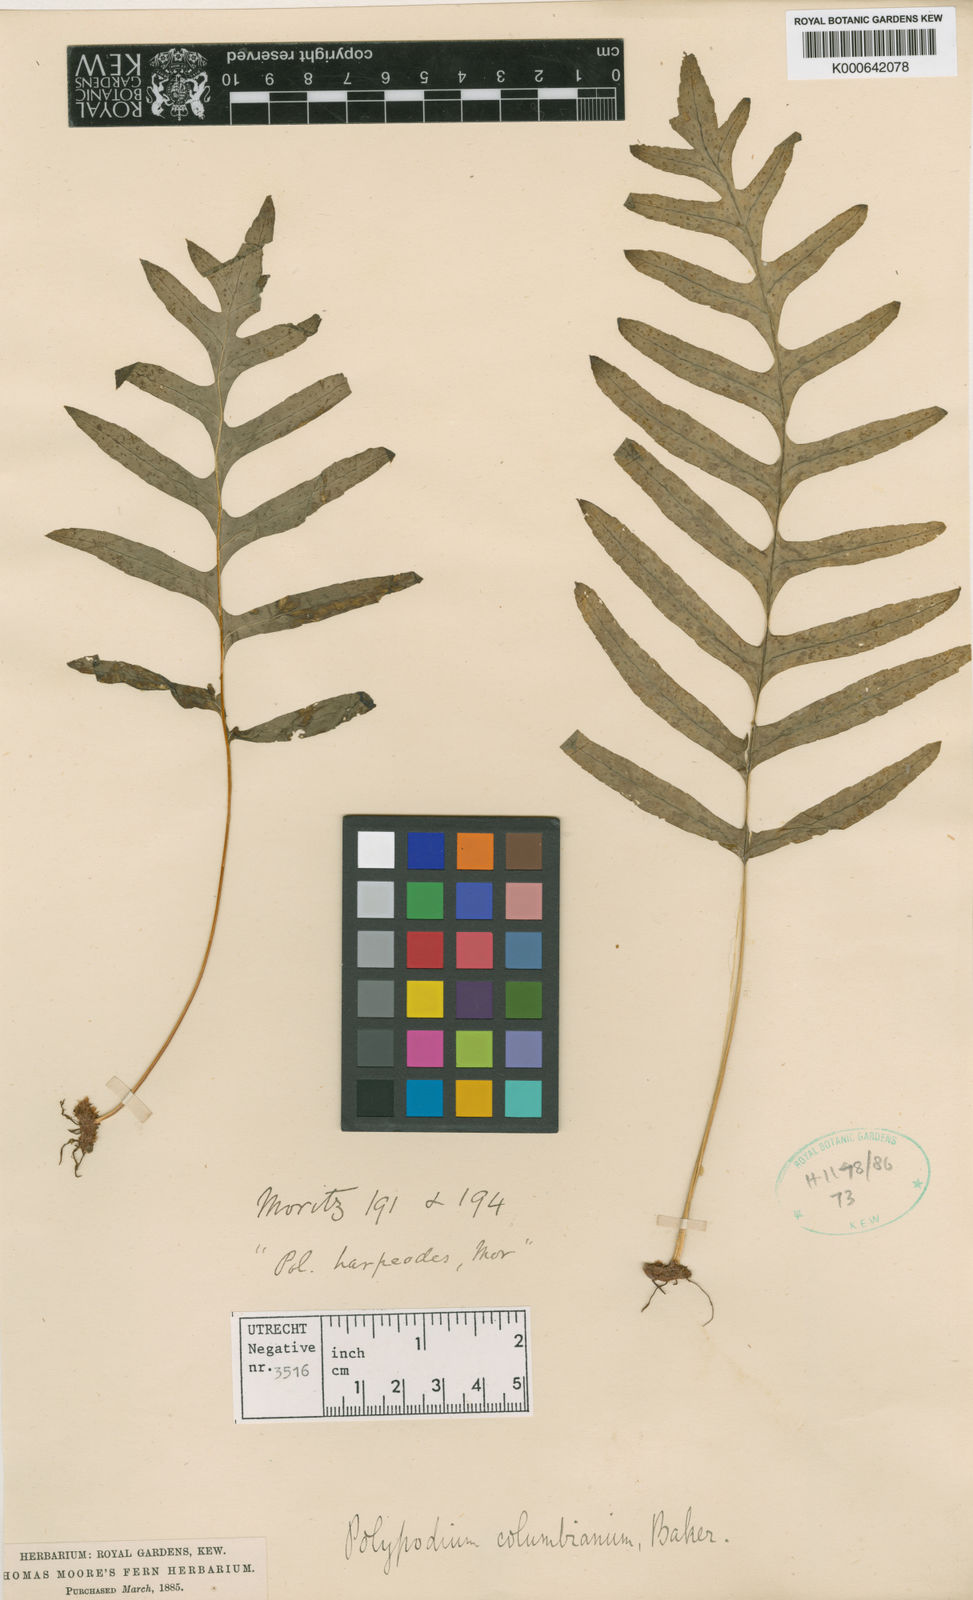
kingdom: Plantae
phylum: Tracheophyta
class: Polypodiopsida
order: Polypodiales
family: Polypodiaceae
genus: Polypodium
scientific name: Polypodium columbianum
